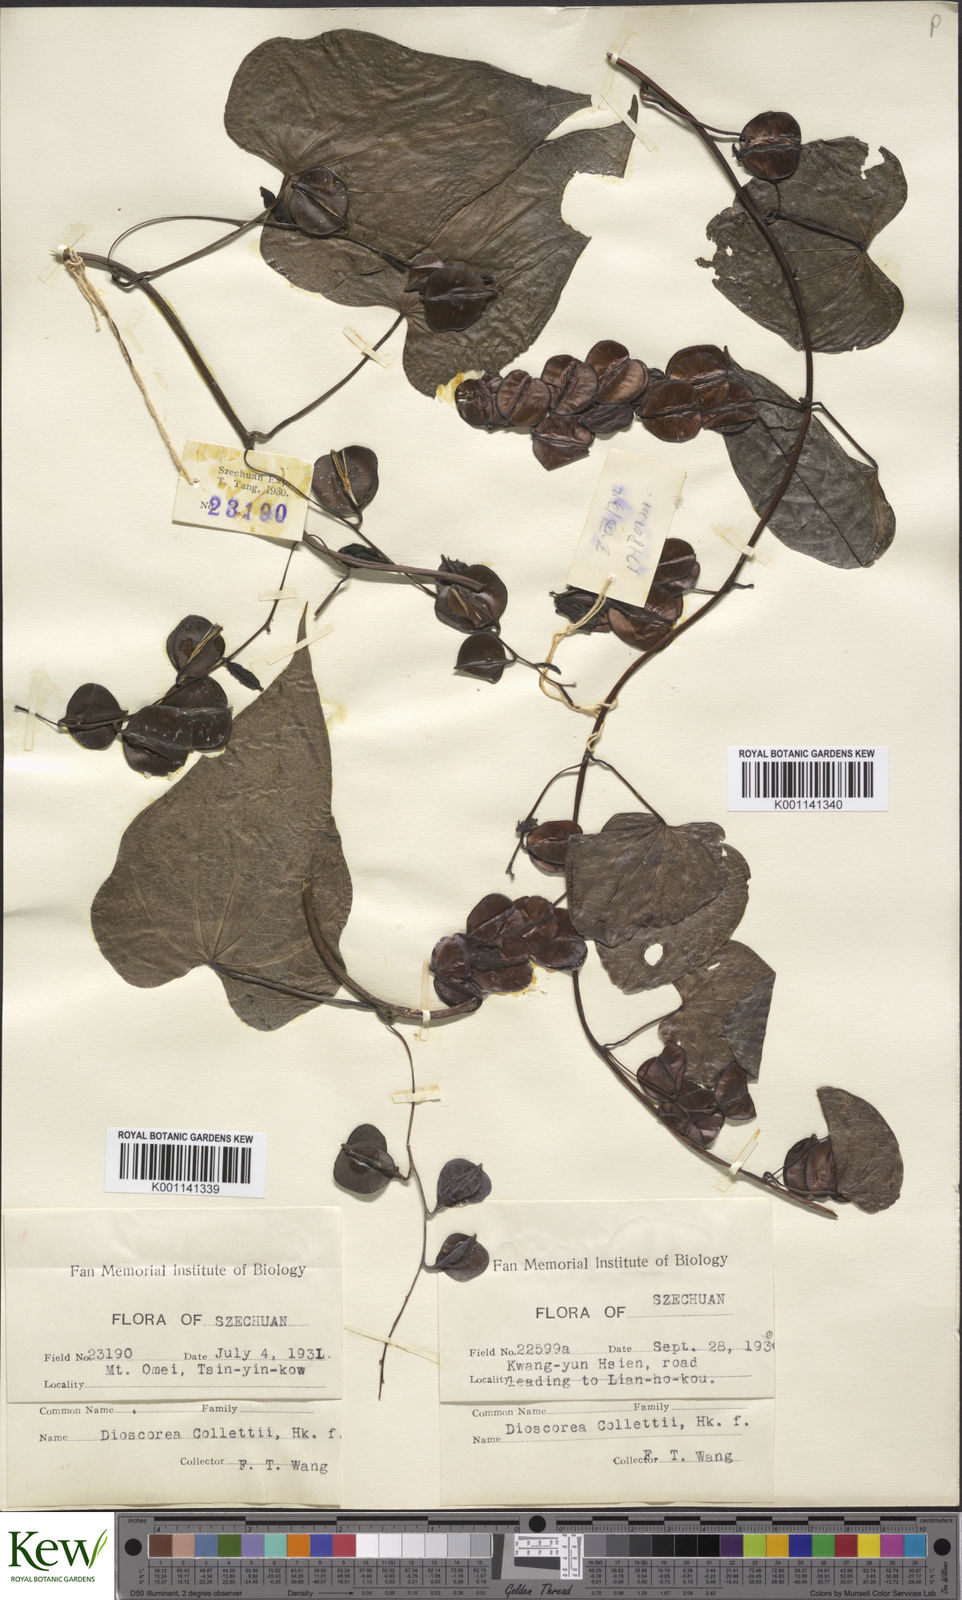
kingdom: Plantae
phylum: Tracheophyta
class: Liliopsida
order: Dioscoreales
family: Dioscoreaceae
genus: Dioscorea
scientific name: Dioscorea collettii
